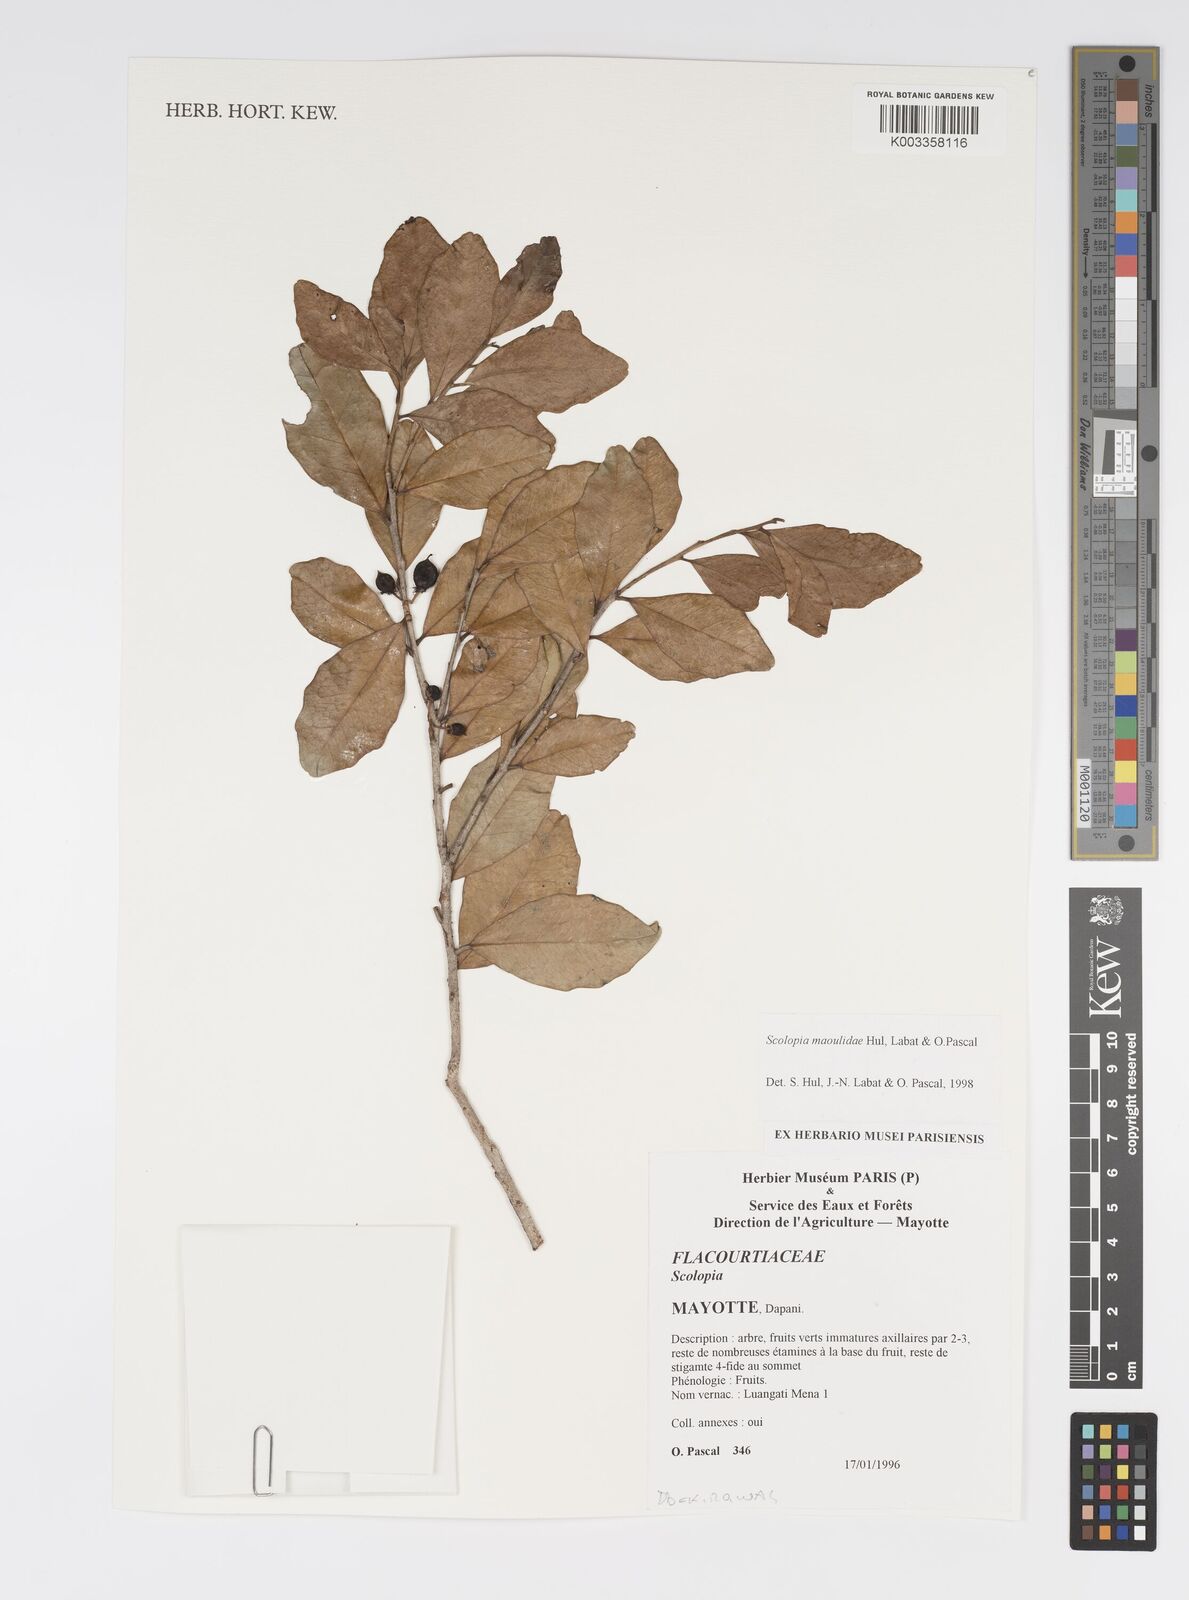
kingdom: Plantae
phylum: Tracheophyta
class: Magnoliopsida
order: Malpighiales
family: Salicaceae
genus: Scolopia
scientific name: Scolopia maoulidae
